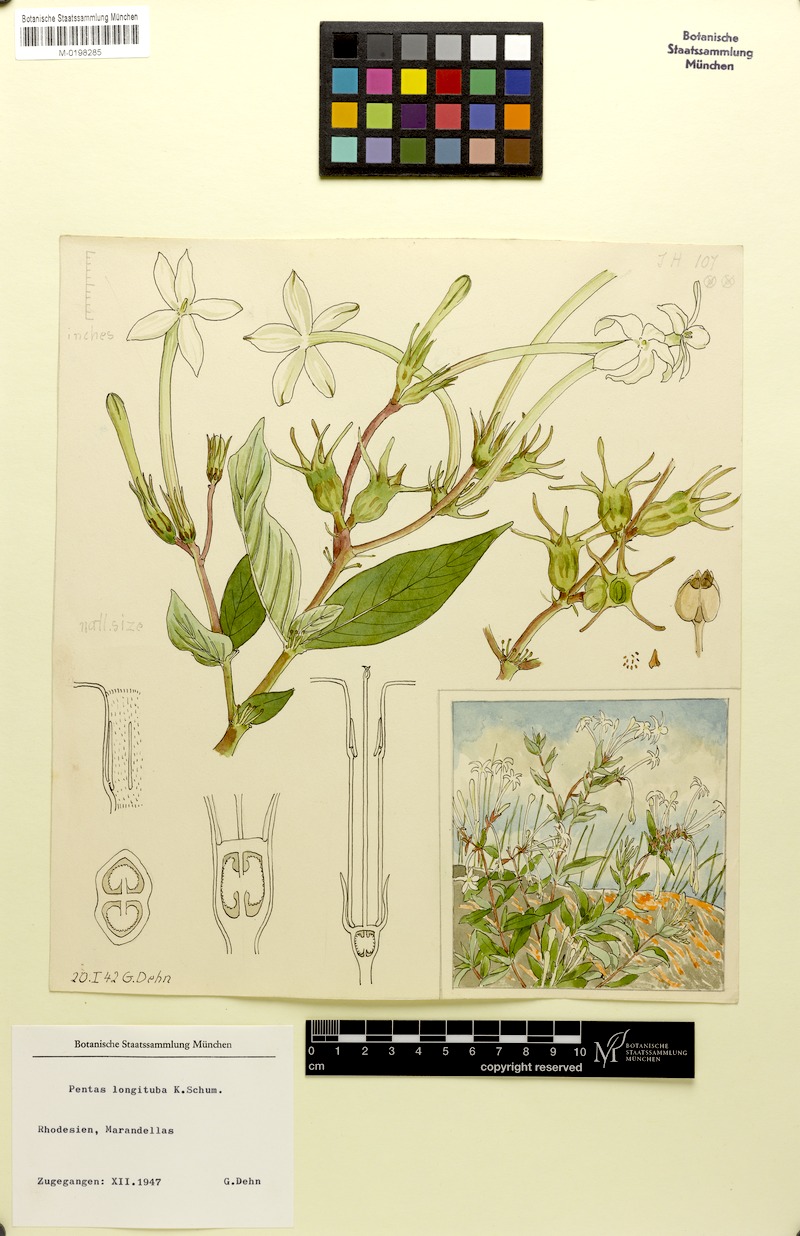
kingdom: Plantae
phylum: Tracheophyta
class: Magnoliopsida
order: Gentianales
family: Rubiaceae
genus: Chamaepentas
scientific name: Chamaepentas longituba
